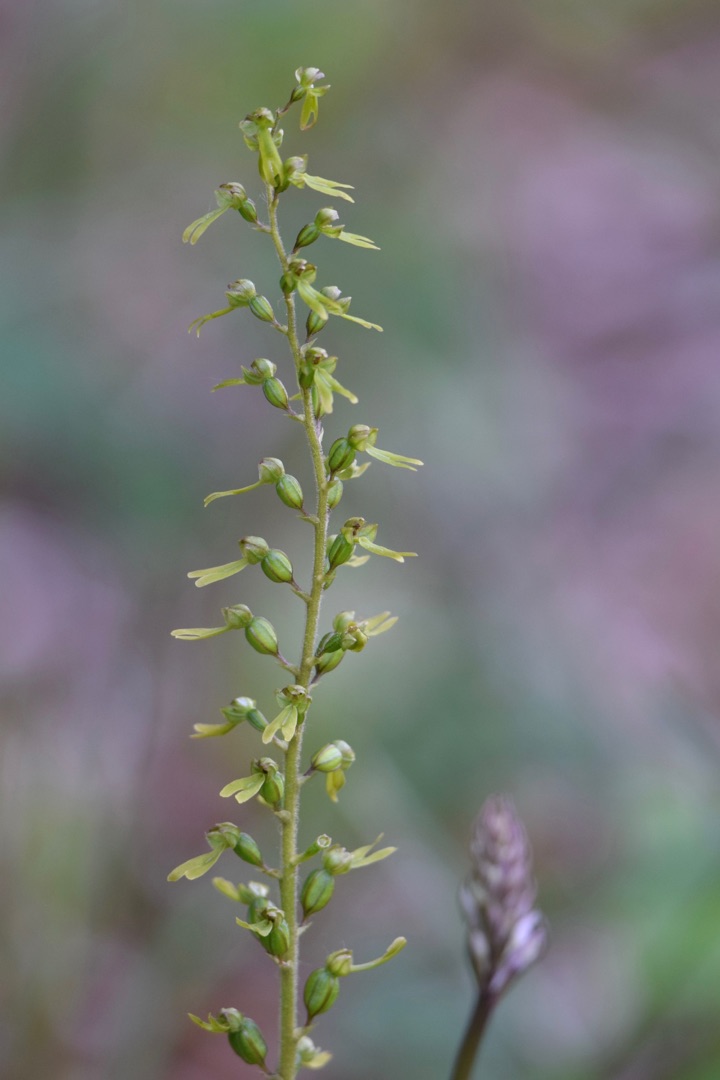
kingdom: Plantae
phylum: Tracheophyta
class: Liliopsida
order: Asparagales
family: Orchidaceae
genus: Neottia
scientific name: Neottia ovata
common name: Ægbladet fliglæbe
